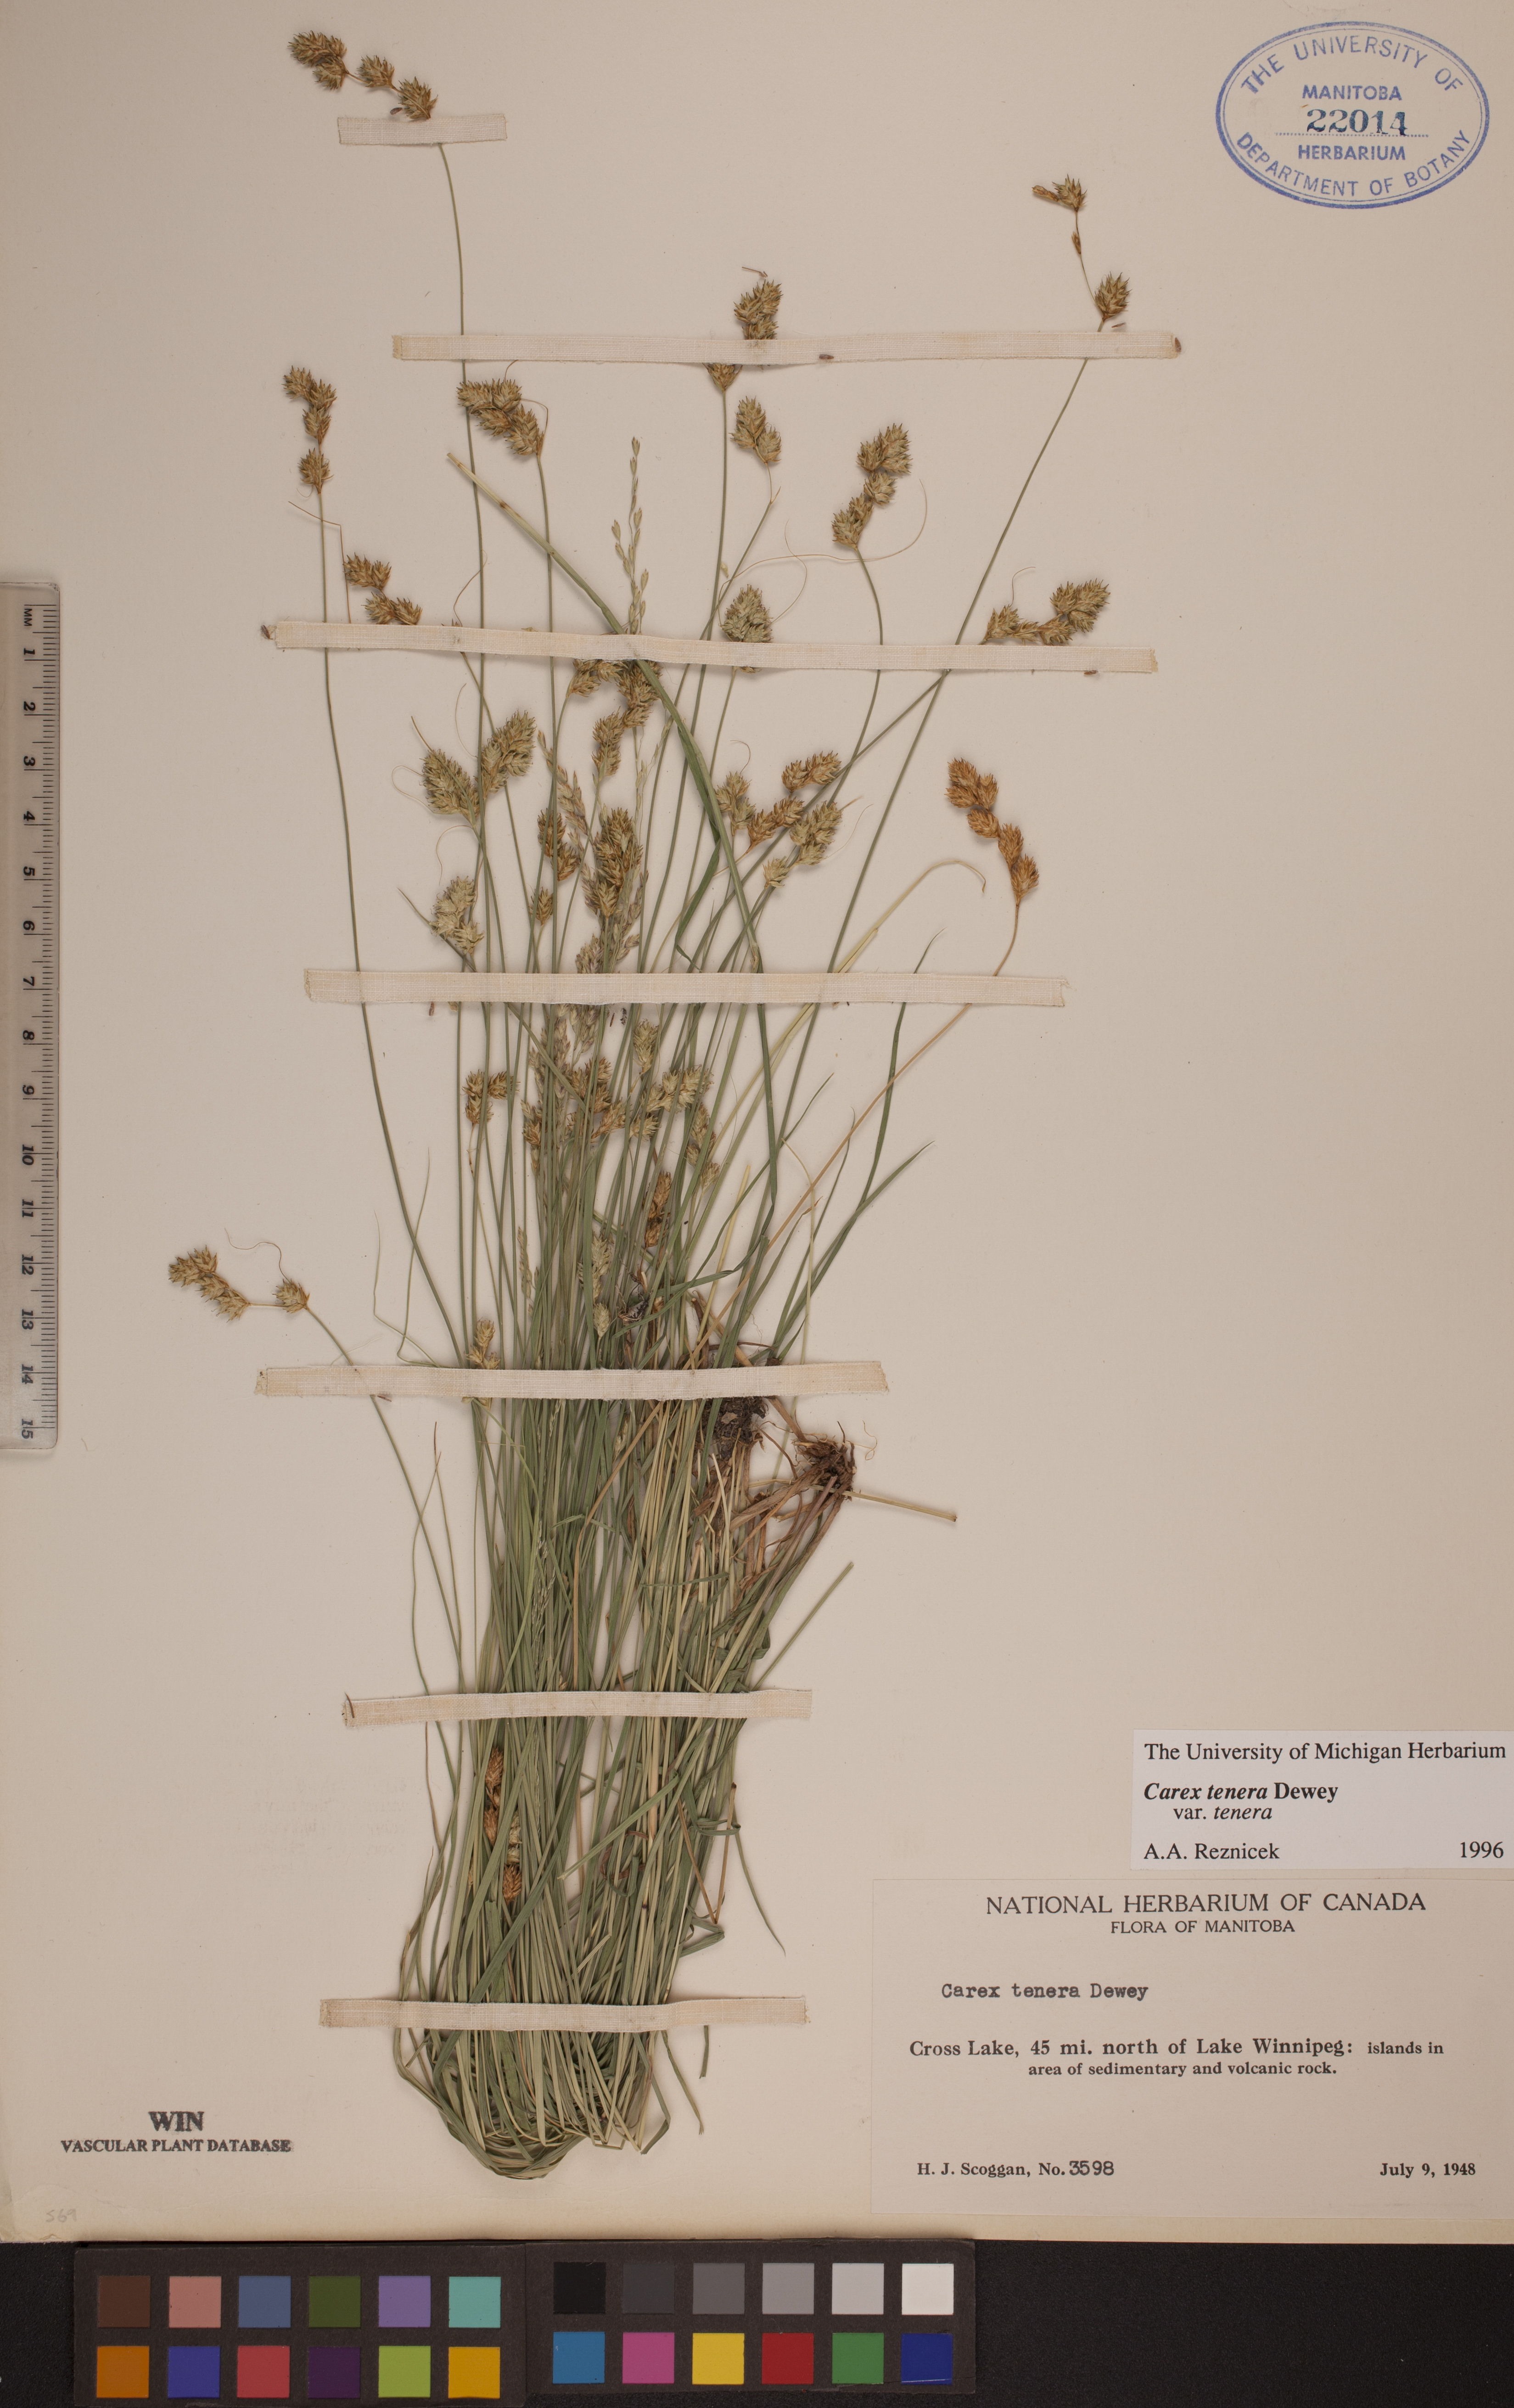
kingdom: Plantae
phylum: Tracheophyta
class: Liliopsida
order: Poales
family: Cyperaceae
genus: Carex
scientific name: Carex tenera
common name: Broad-fruited sedge
